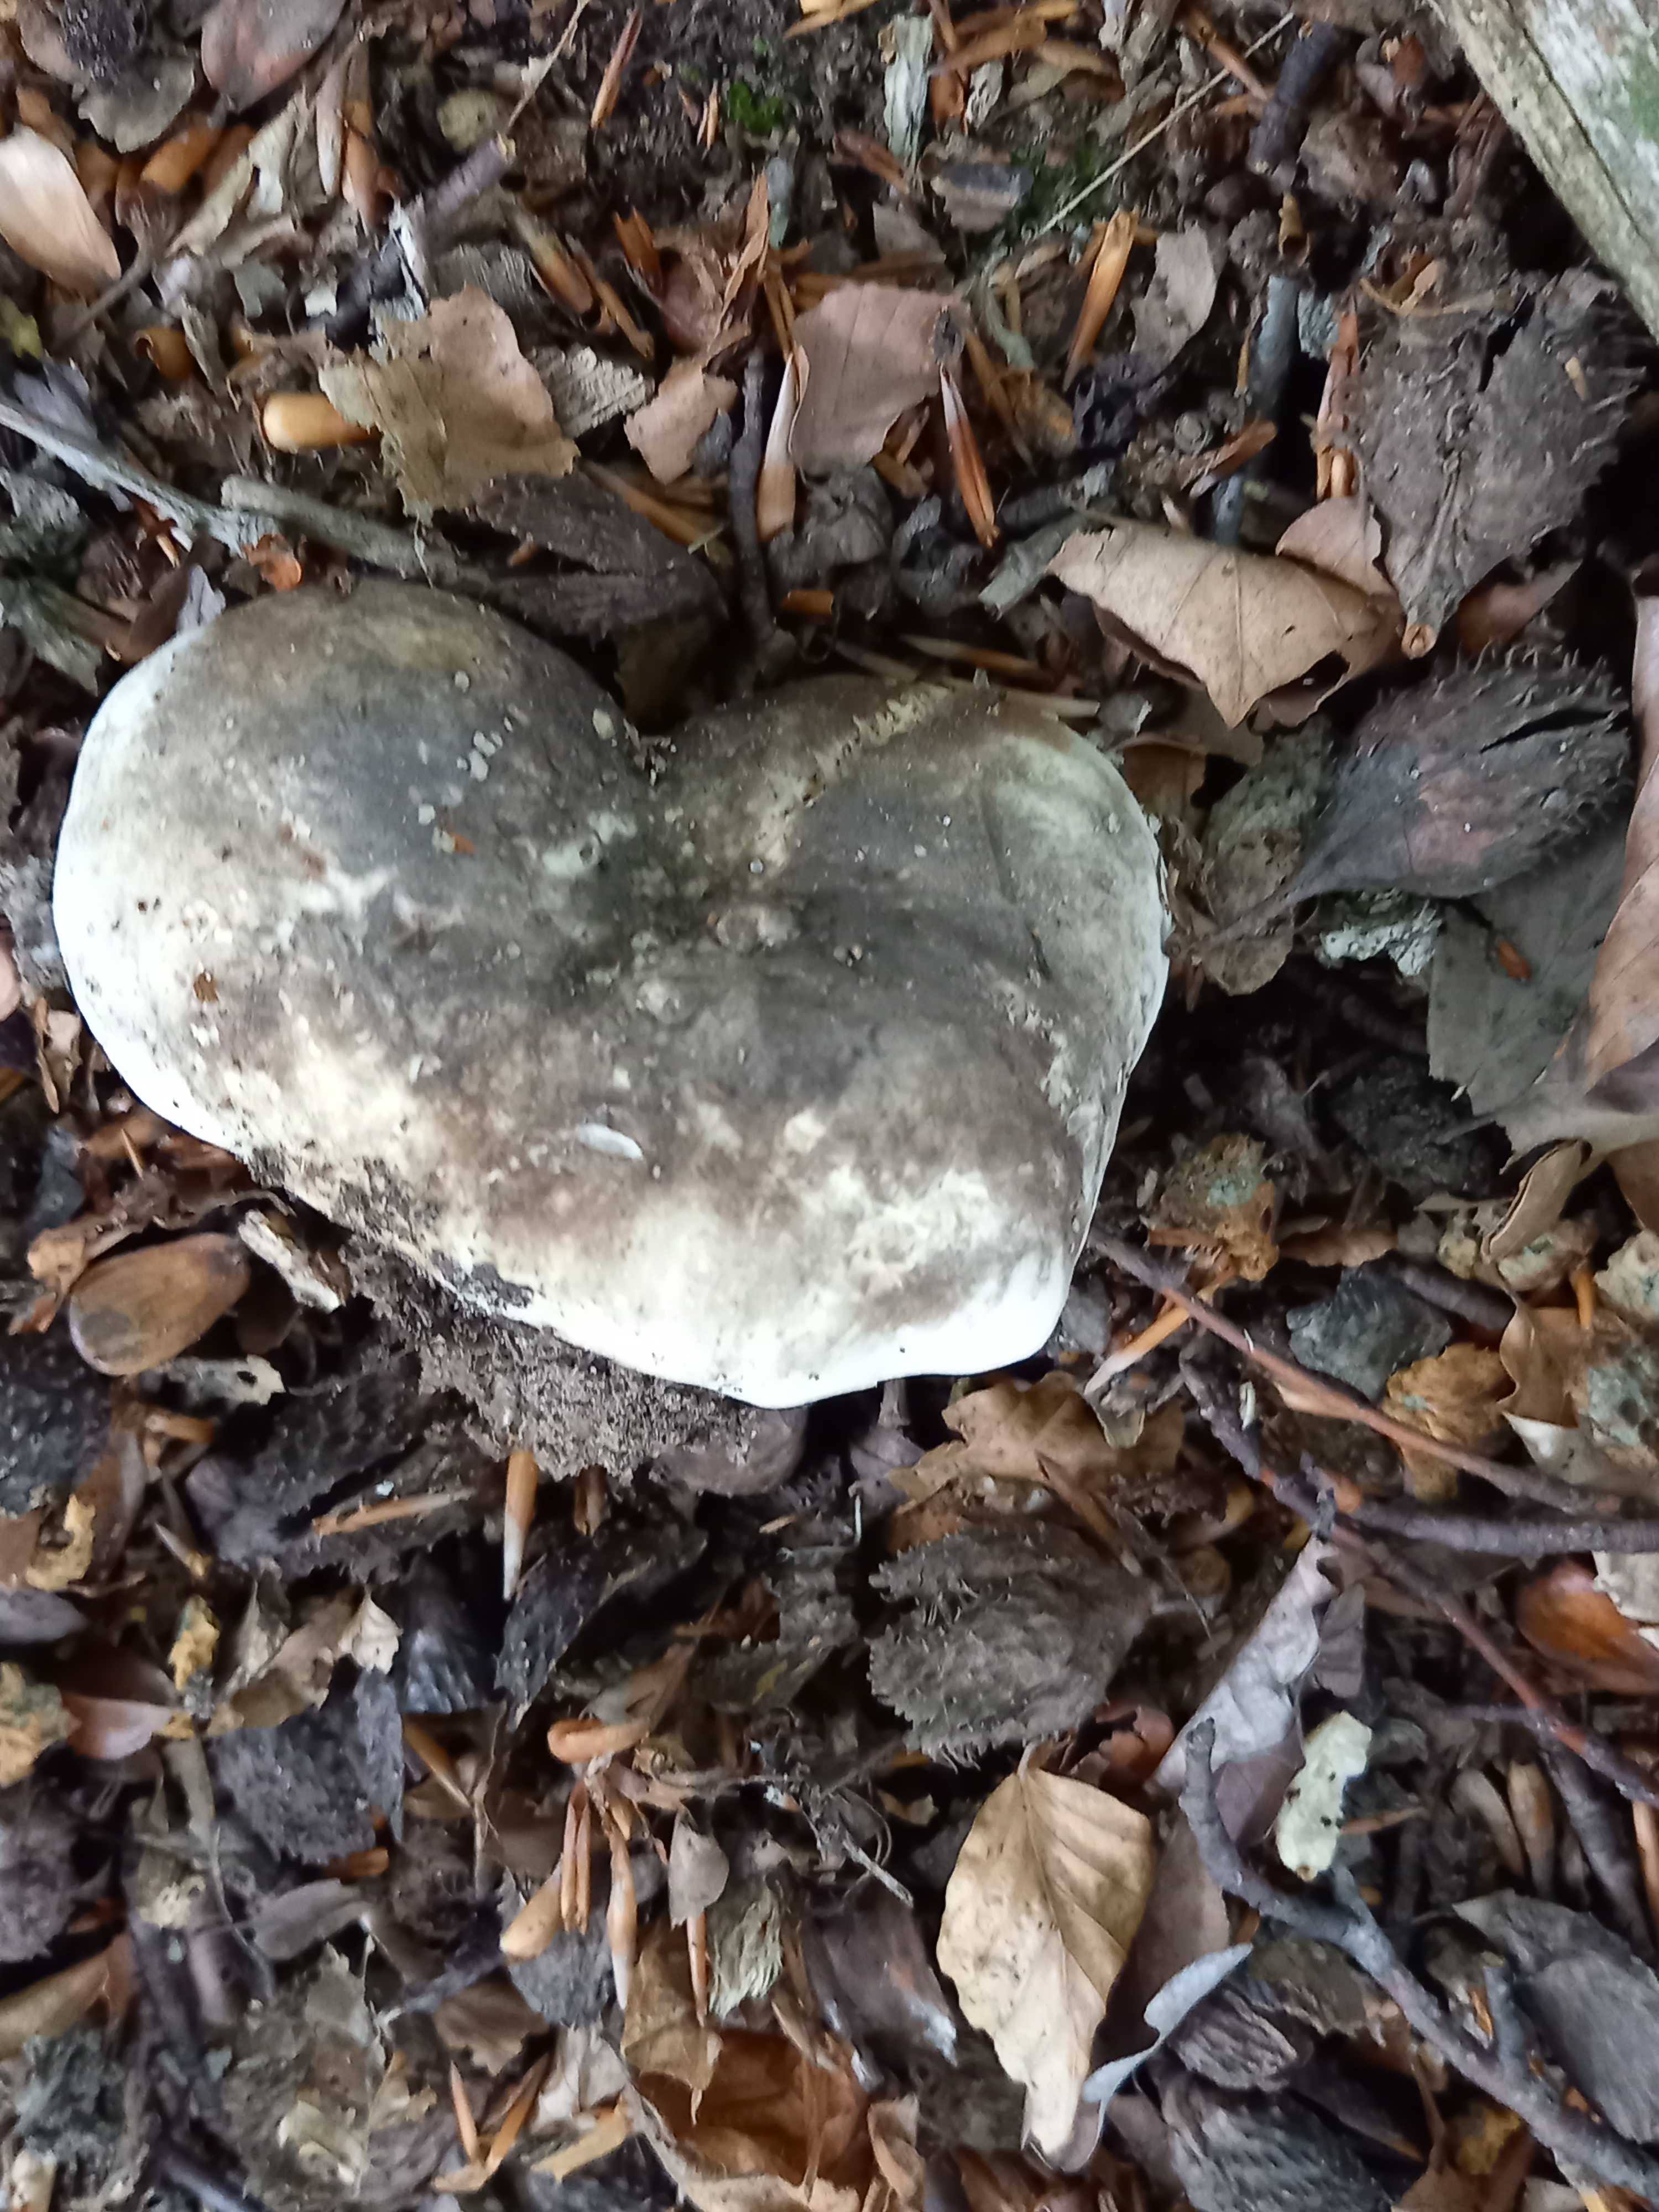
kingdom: Fungi
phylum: Basidiomycota
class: Agaricomycetes
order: Russulales
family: Russulaceae
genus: Russula
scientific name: Russula adusta
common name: sværtende skørhat
